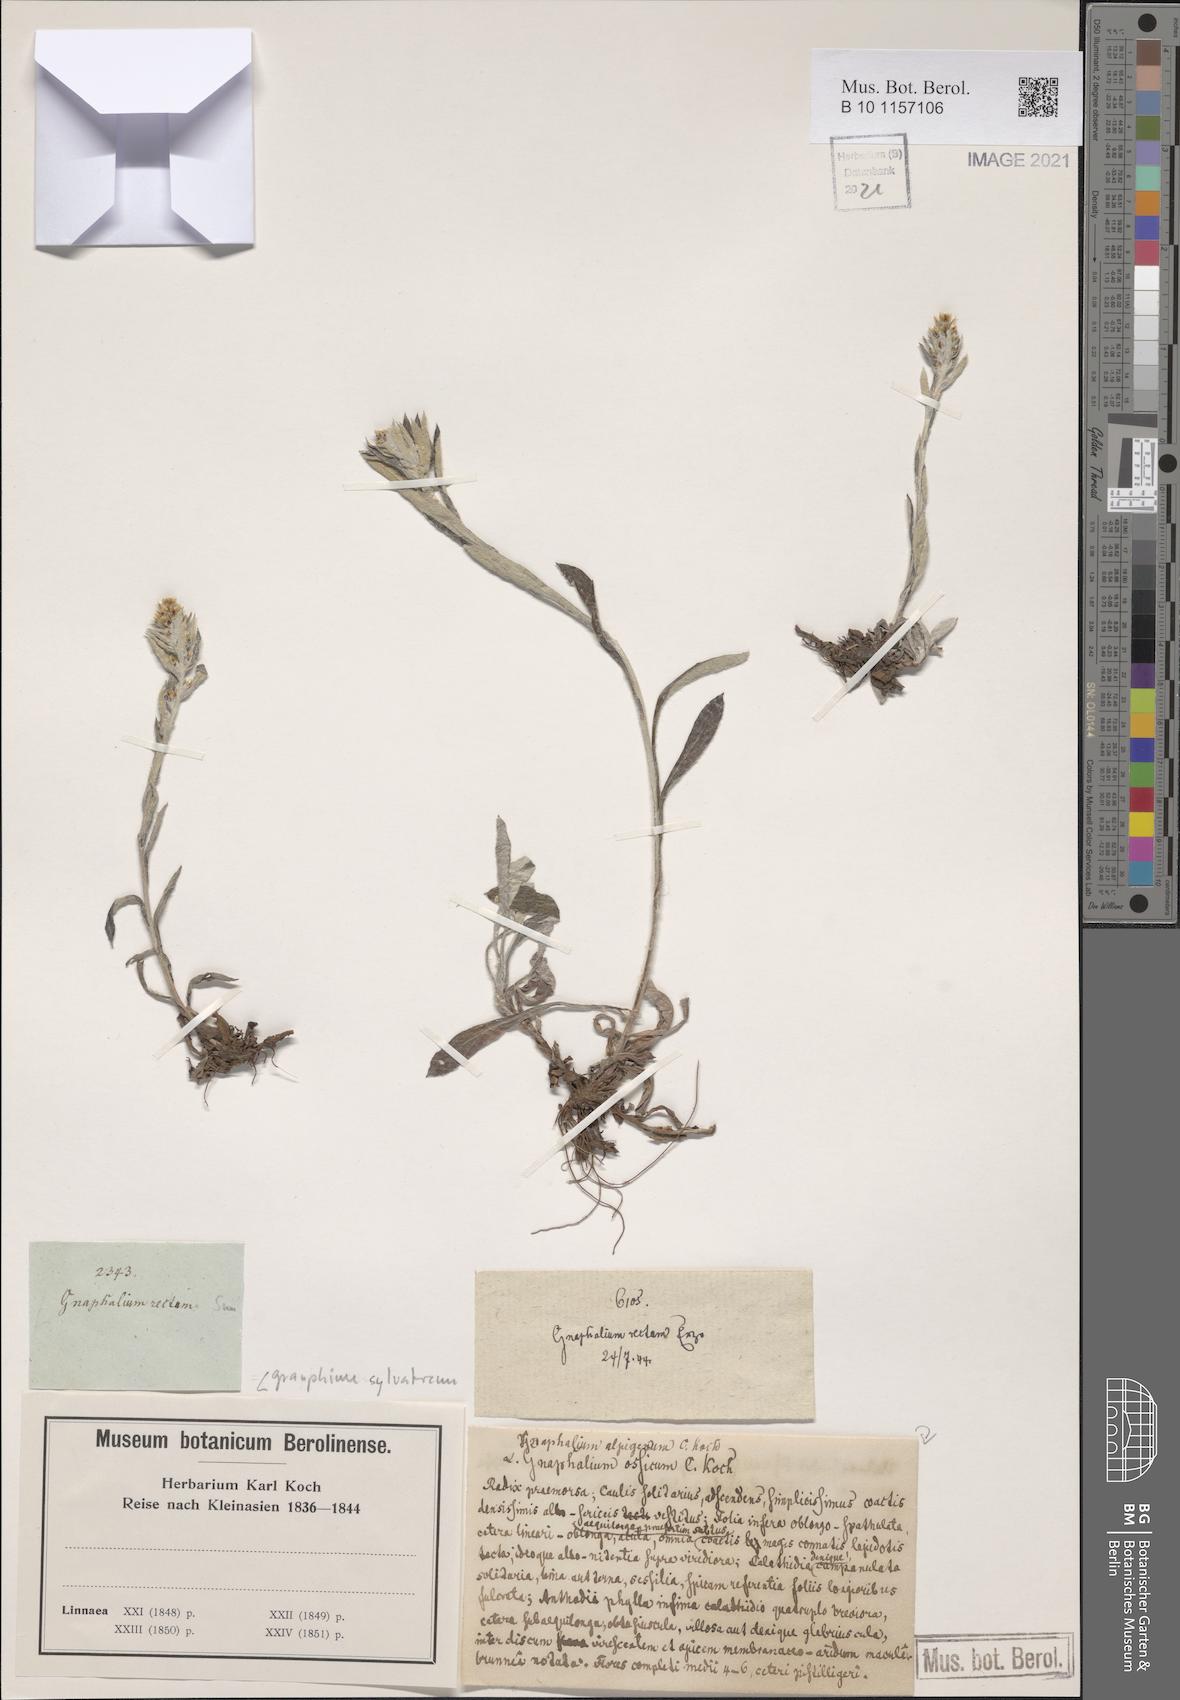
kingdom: Plantae
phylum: Tracheophyta
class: Magnoliopsida
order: Asterales
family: Asteraceae
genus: Omalotheca
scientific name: Omalotheca sylvatica
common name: Heath cudweed
